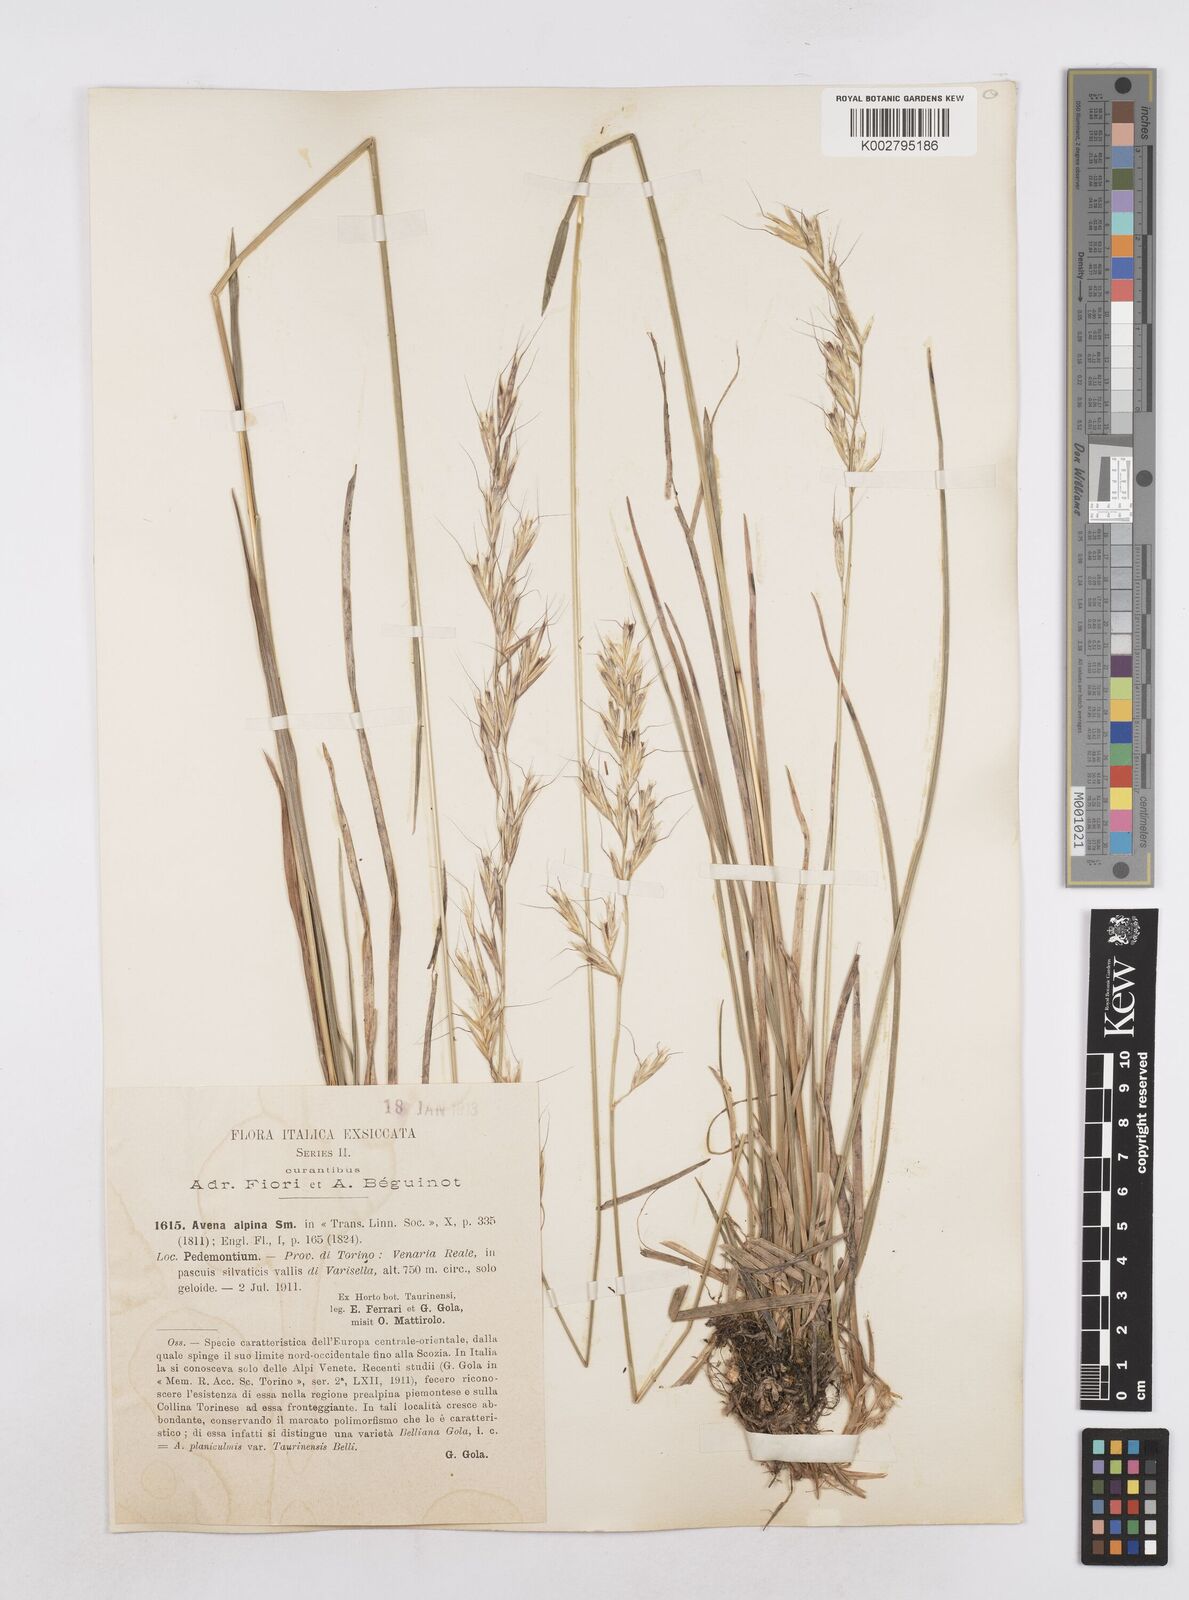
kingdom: Plantae
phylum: Tracheophyta
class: Liliopsida
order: Poales
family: Poaceae
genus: Helictochloa
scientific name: Helictochloa pratensis
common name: Meadow oat grass
